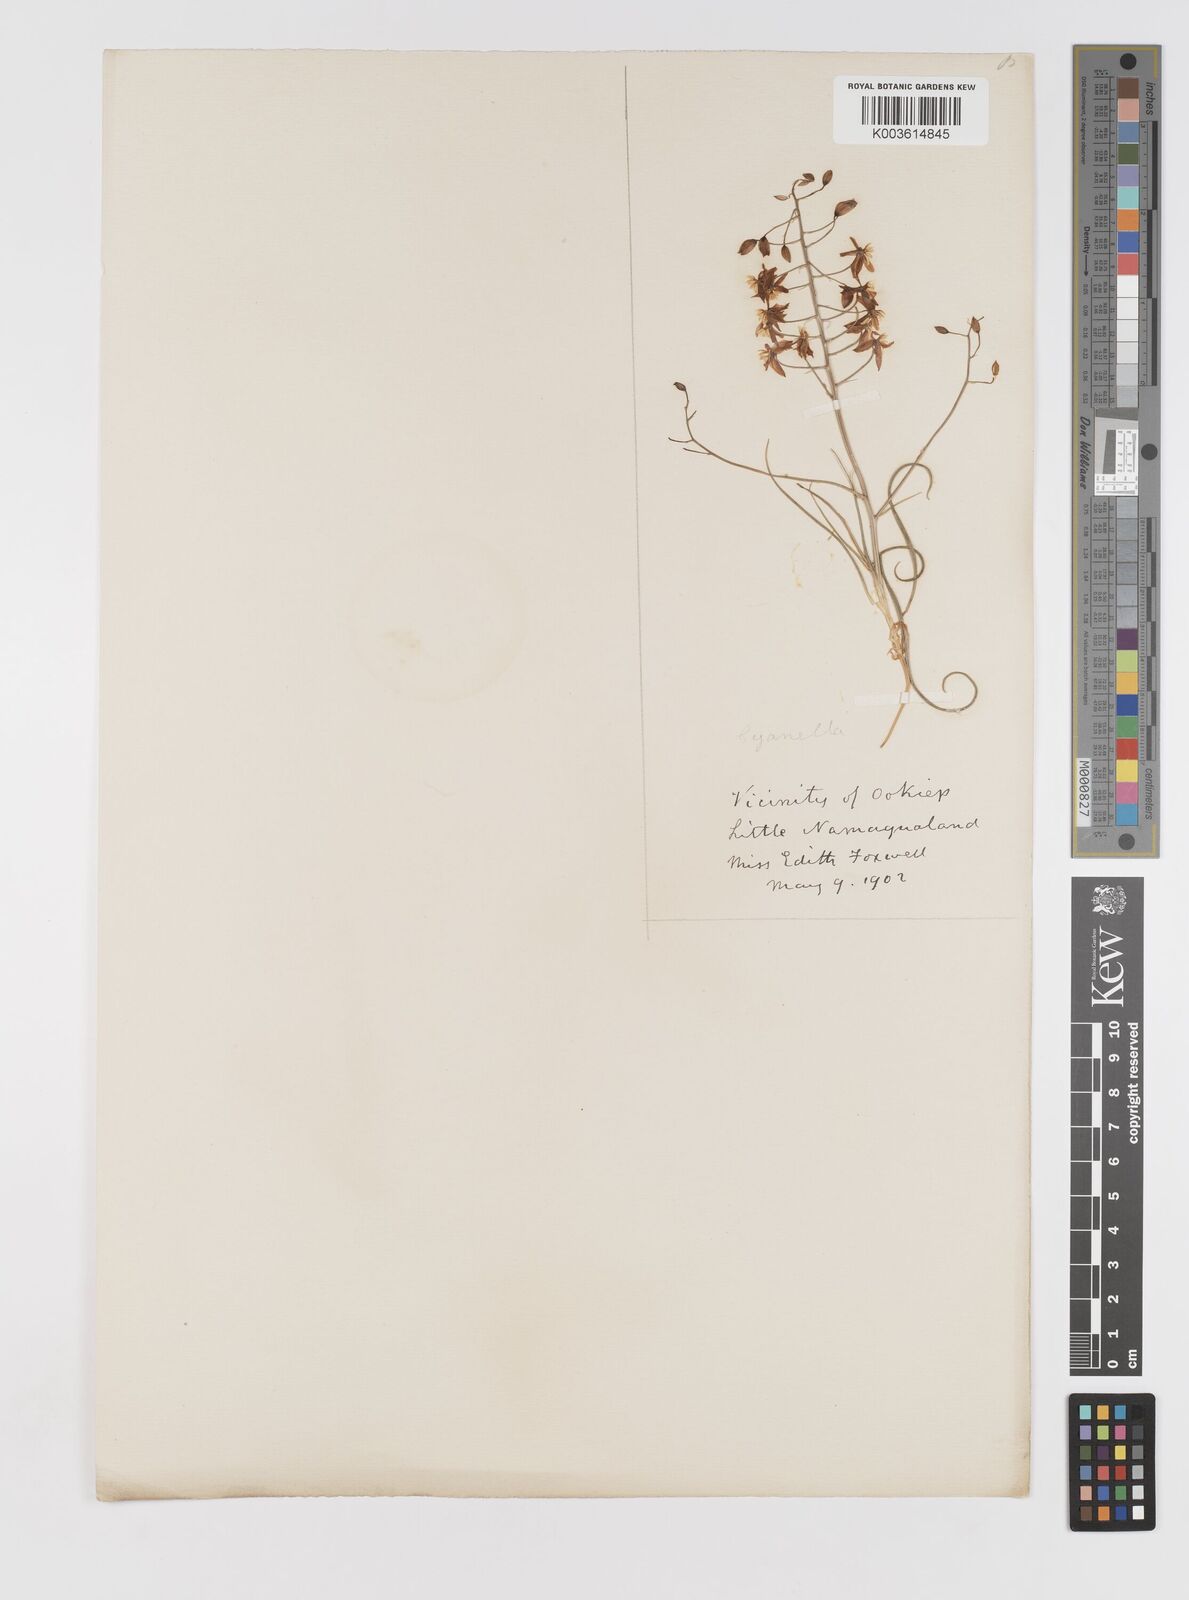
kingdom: Plantae
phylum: Tracheophyta
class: Liliopsida
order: Asparagales
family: Tecophilaeaceae
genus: Cyanella
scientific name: Cyanella
